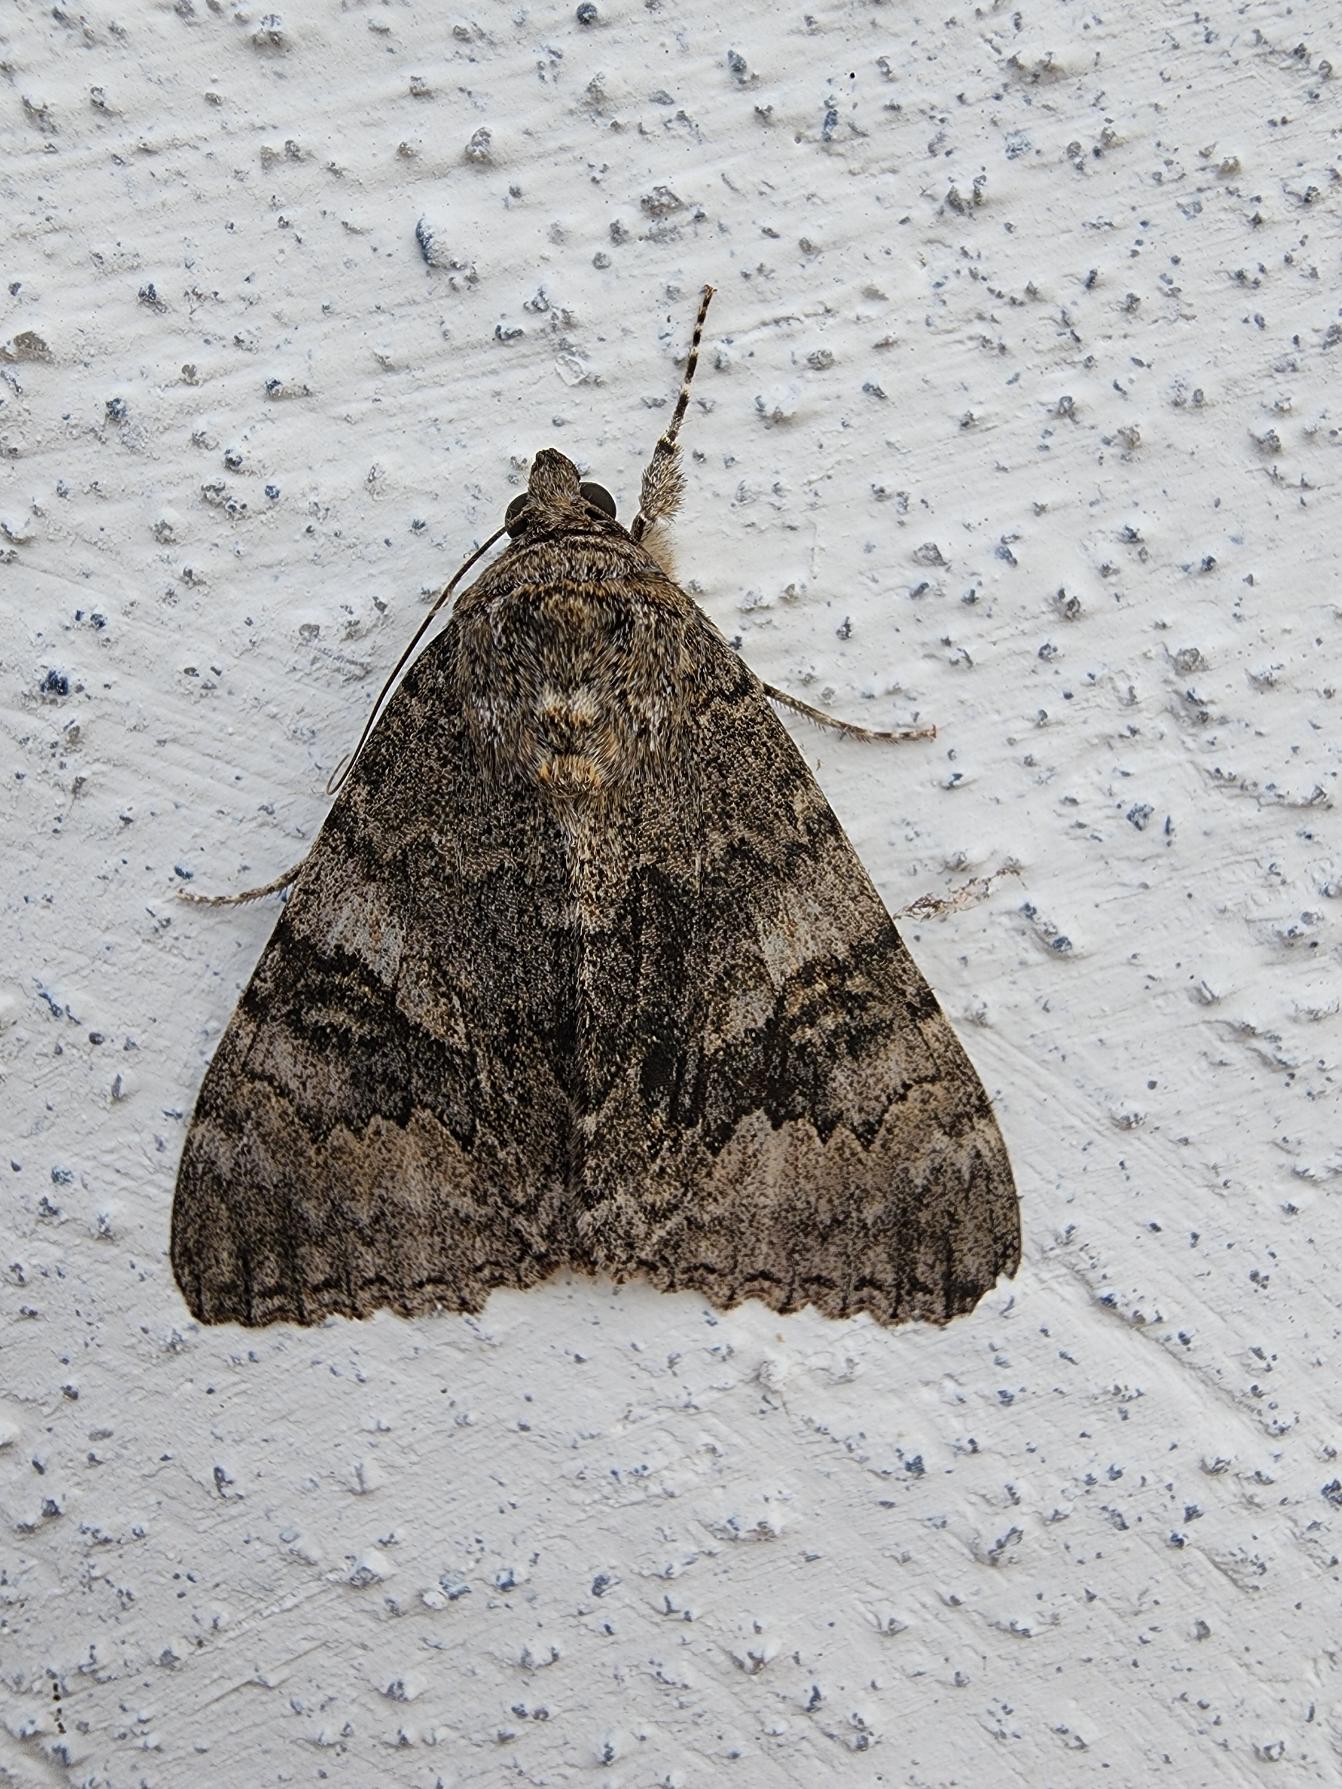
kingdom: Animalia
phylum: Arthropoda
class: Insecta
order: Lepidoptera
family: Erebidae
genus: Catocala
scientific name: Catocala nupta
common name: Rødt ordensbånd
